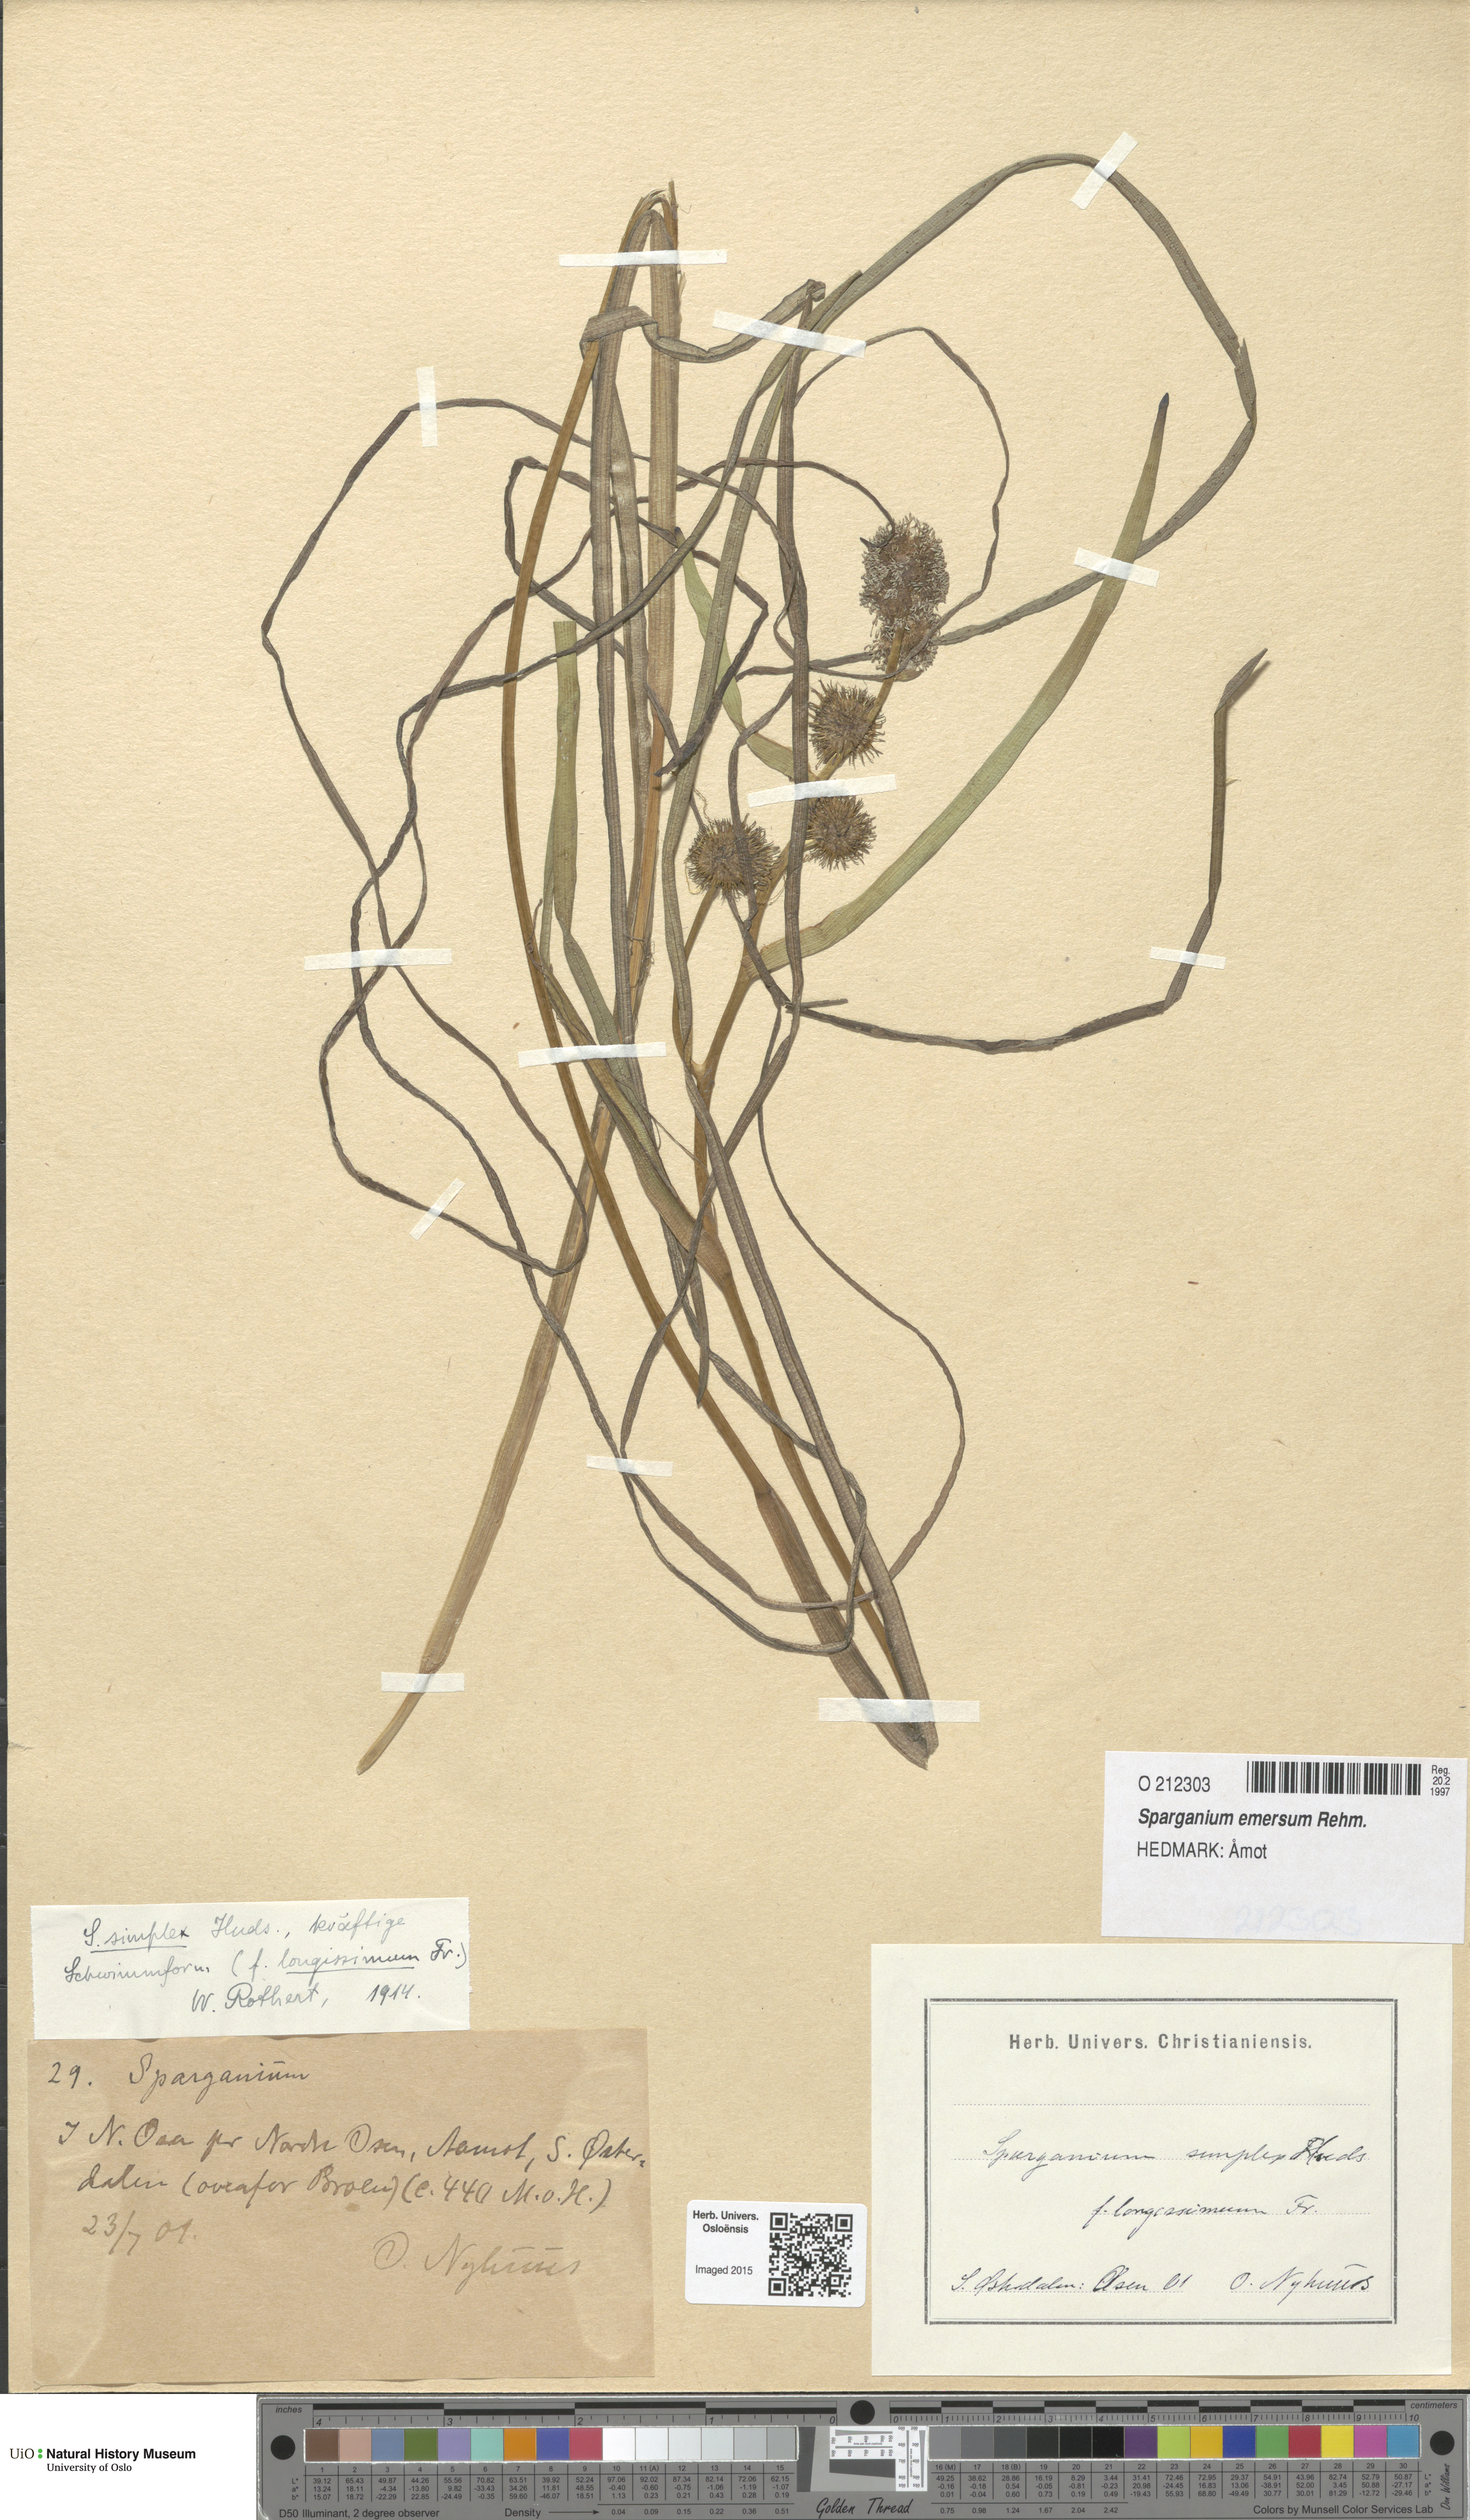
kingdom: Plantae
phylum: Tracheophyta
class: Liliopsida
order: Poales
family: Typhaceae
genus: Sparganium
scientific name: Sparganium emersum
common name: Unbranched bur-reed
